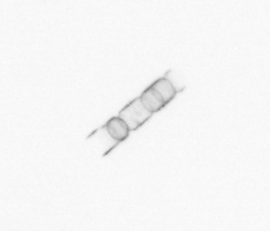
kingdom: Chromista
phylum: Ochrophyta
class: Bacillariophyceae
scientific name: Bacillariophyceae
